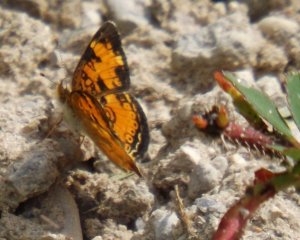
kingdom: Animalia
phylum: Arthropoda
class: Insecta
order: Lepidoptera
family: Nymphalidae
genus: Phyciodes
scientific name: Phyciodes
